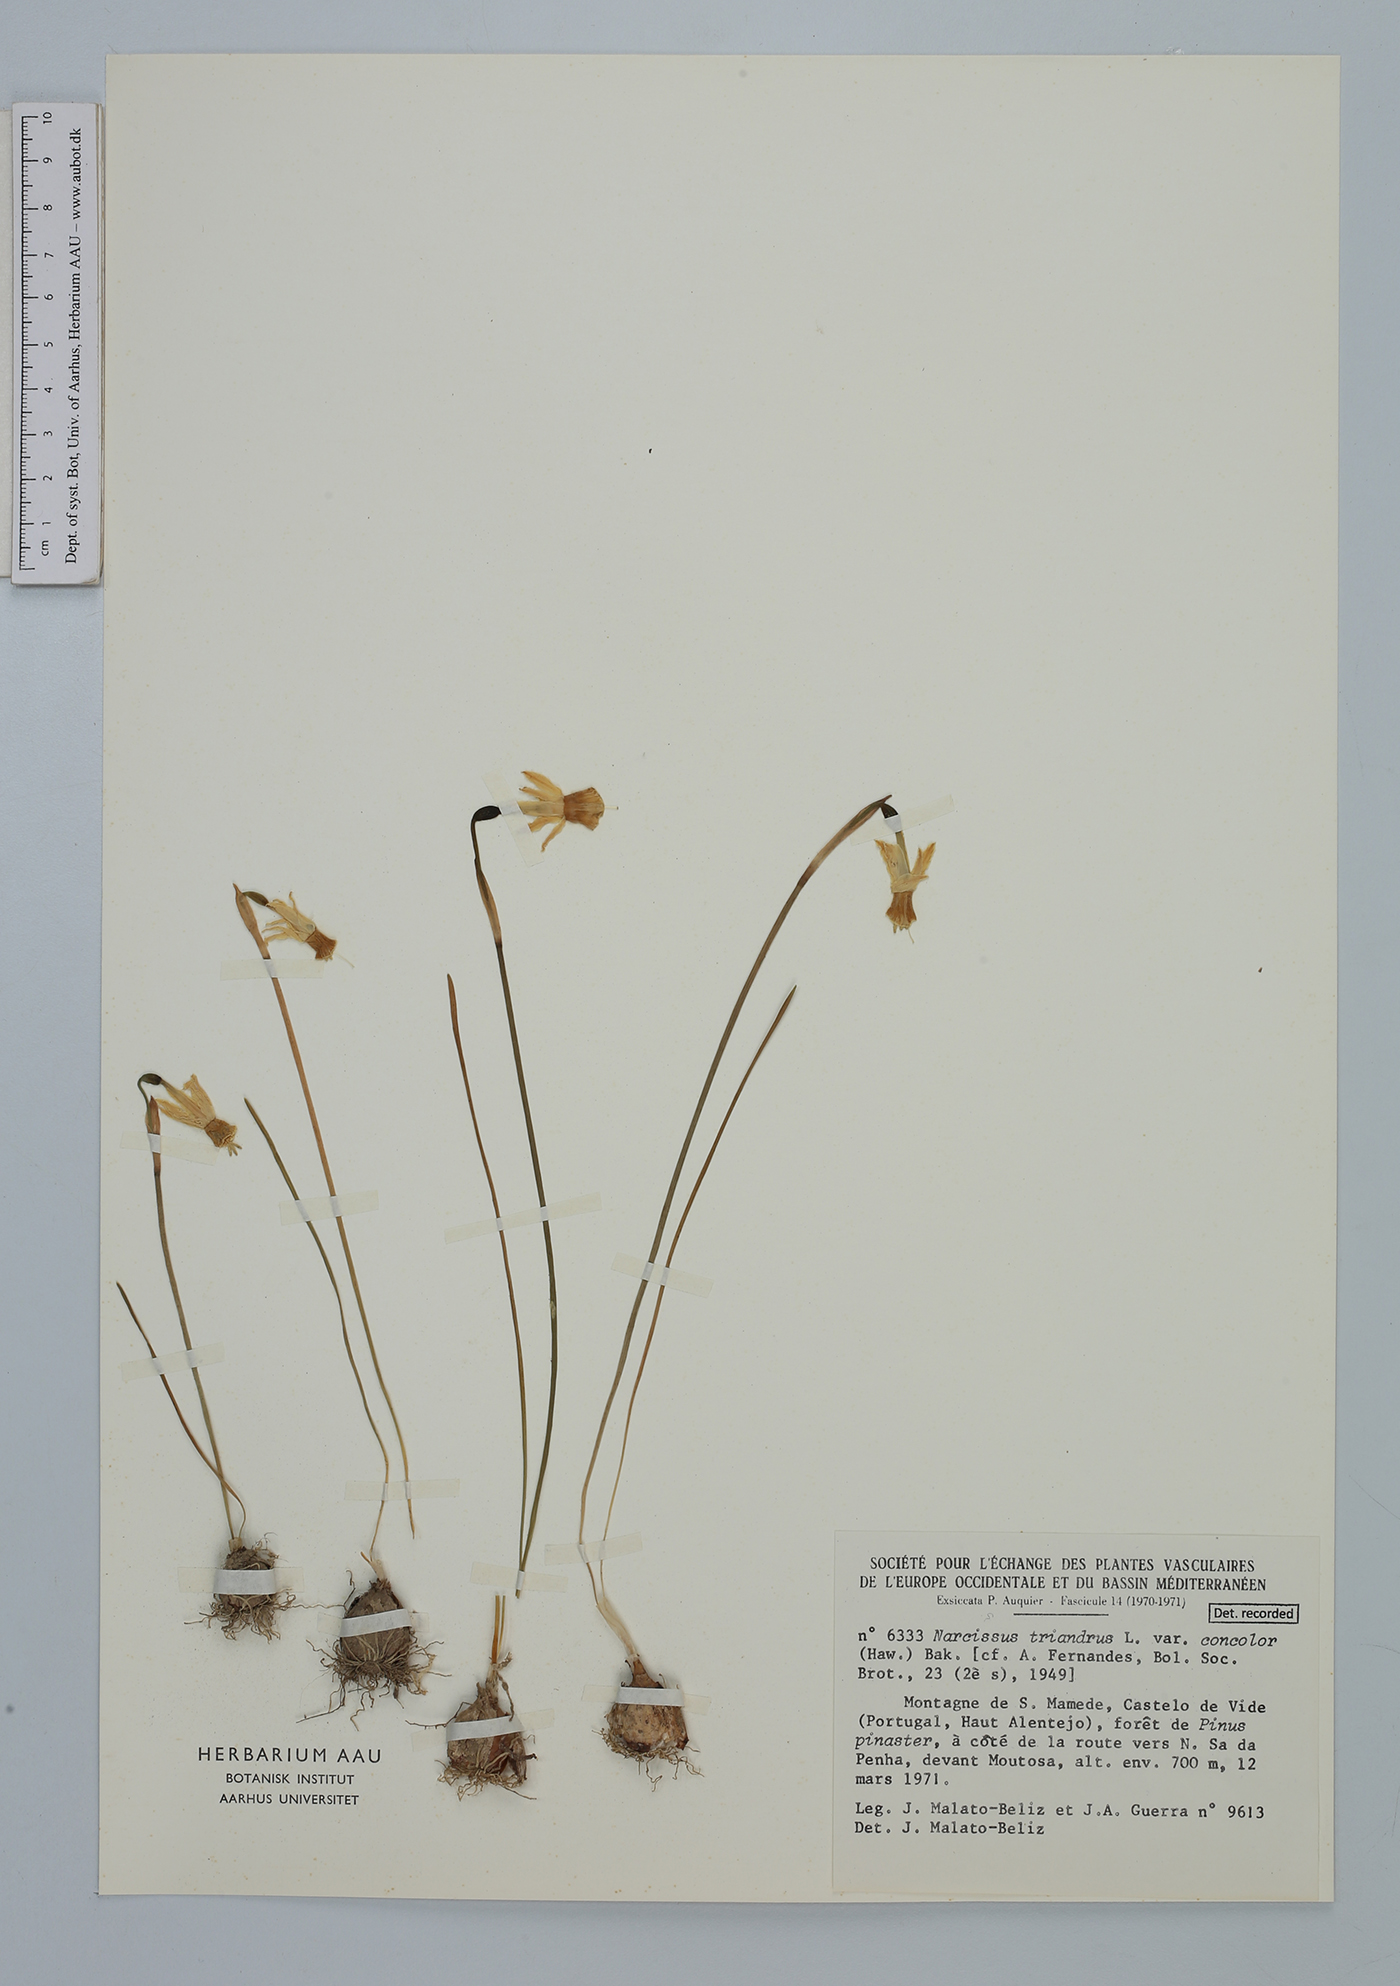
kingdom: Plantae
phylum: Tracheophyta
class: Liliopsida
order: Asparagales
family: Amaryllidaceae
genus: Narcissus
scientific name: Narcissus triandrus
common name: Angel's-tears
